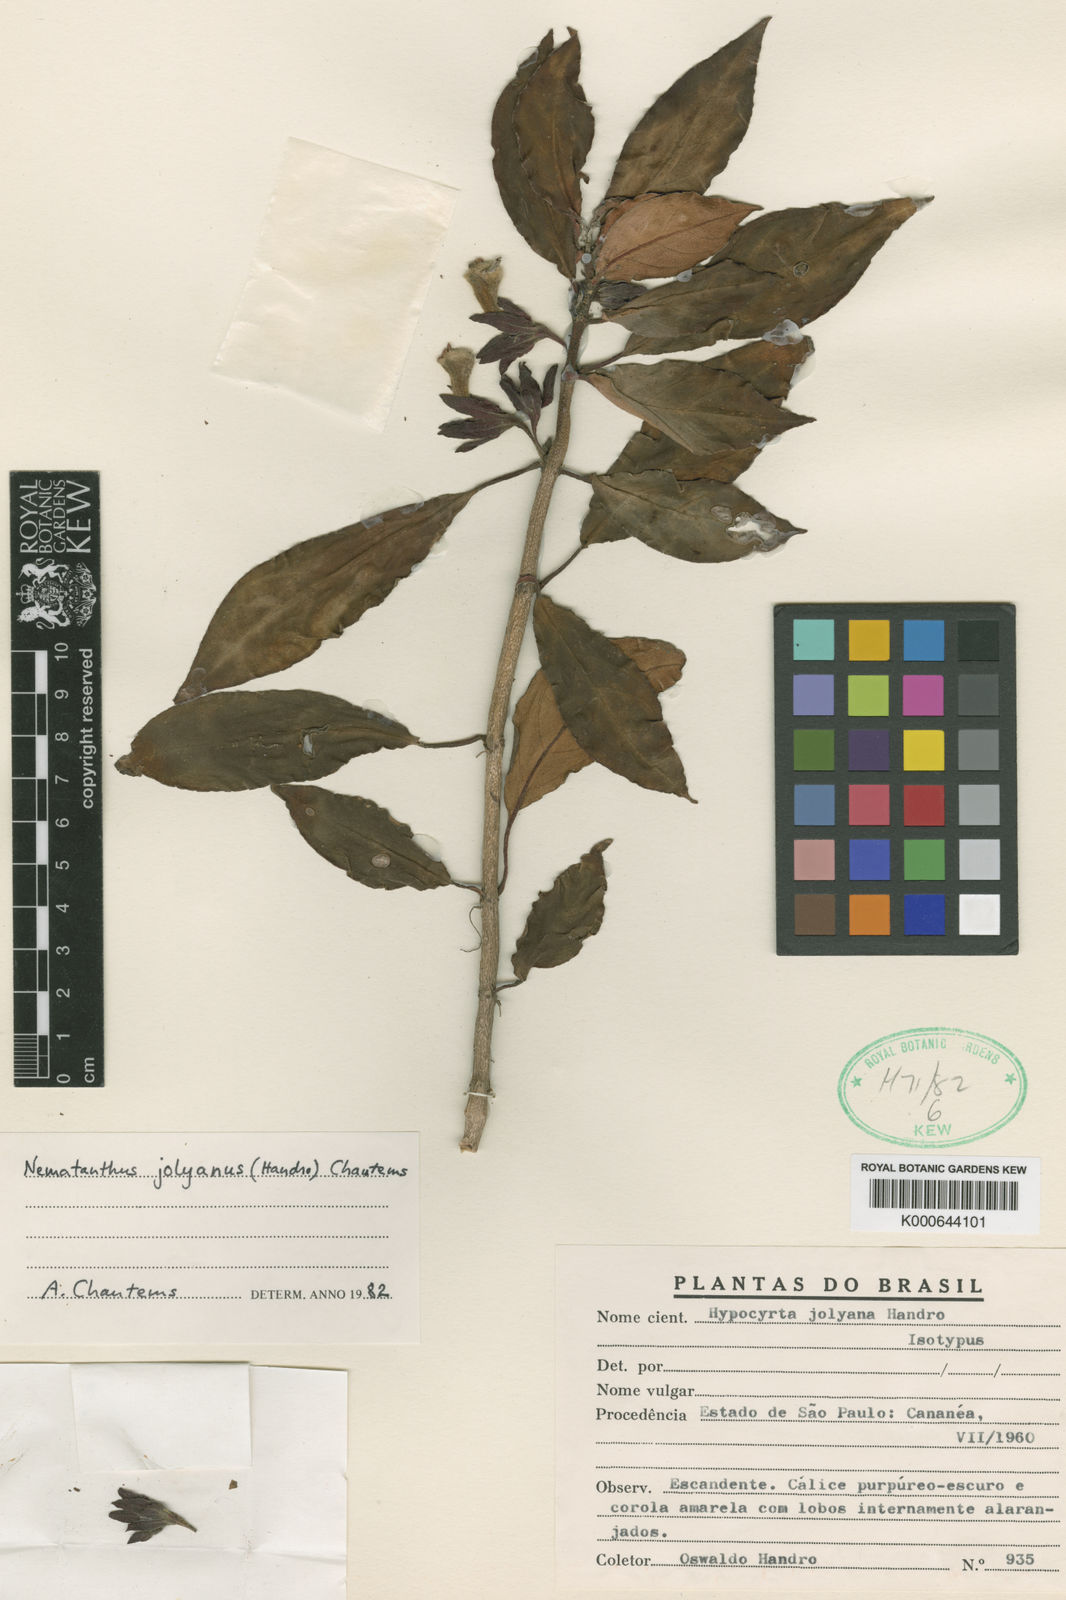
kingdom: Plantae
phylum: Tracheophyta
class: Magnoliopsida
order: Lamiales
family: Gesneriaceae
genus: Nematanthus
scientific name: Nematanthus jolyanus
